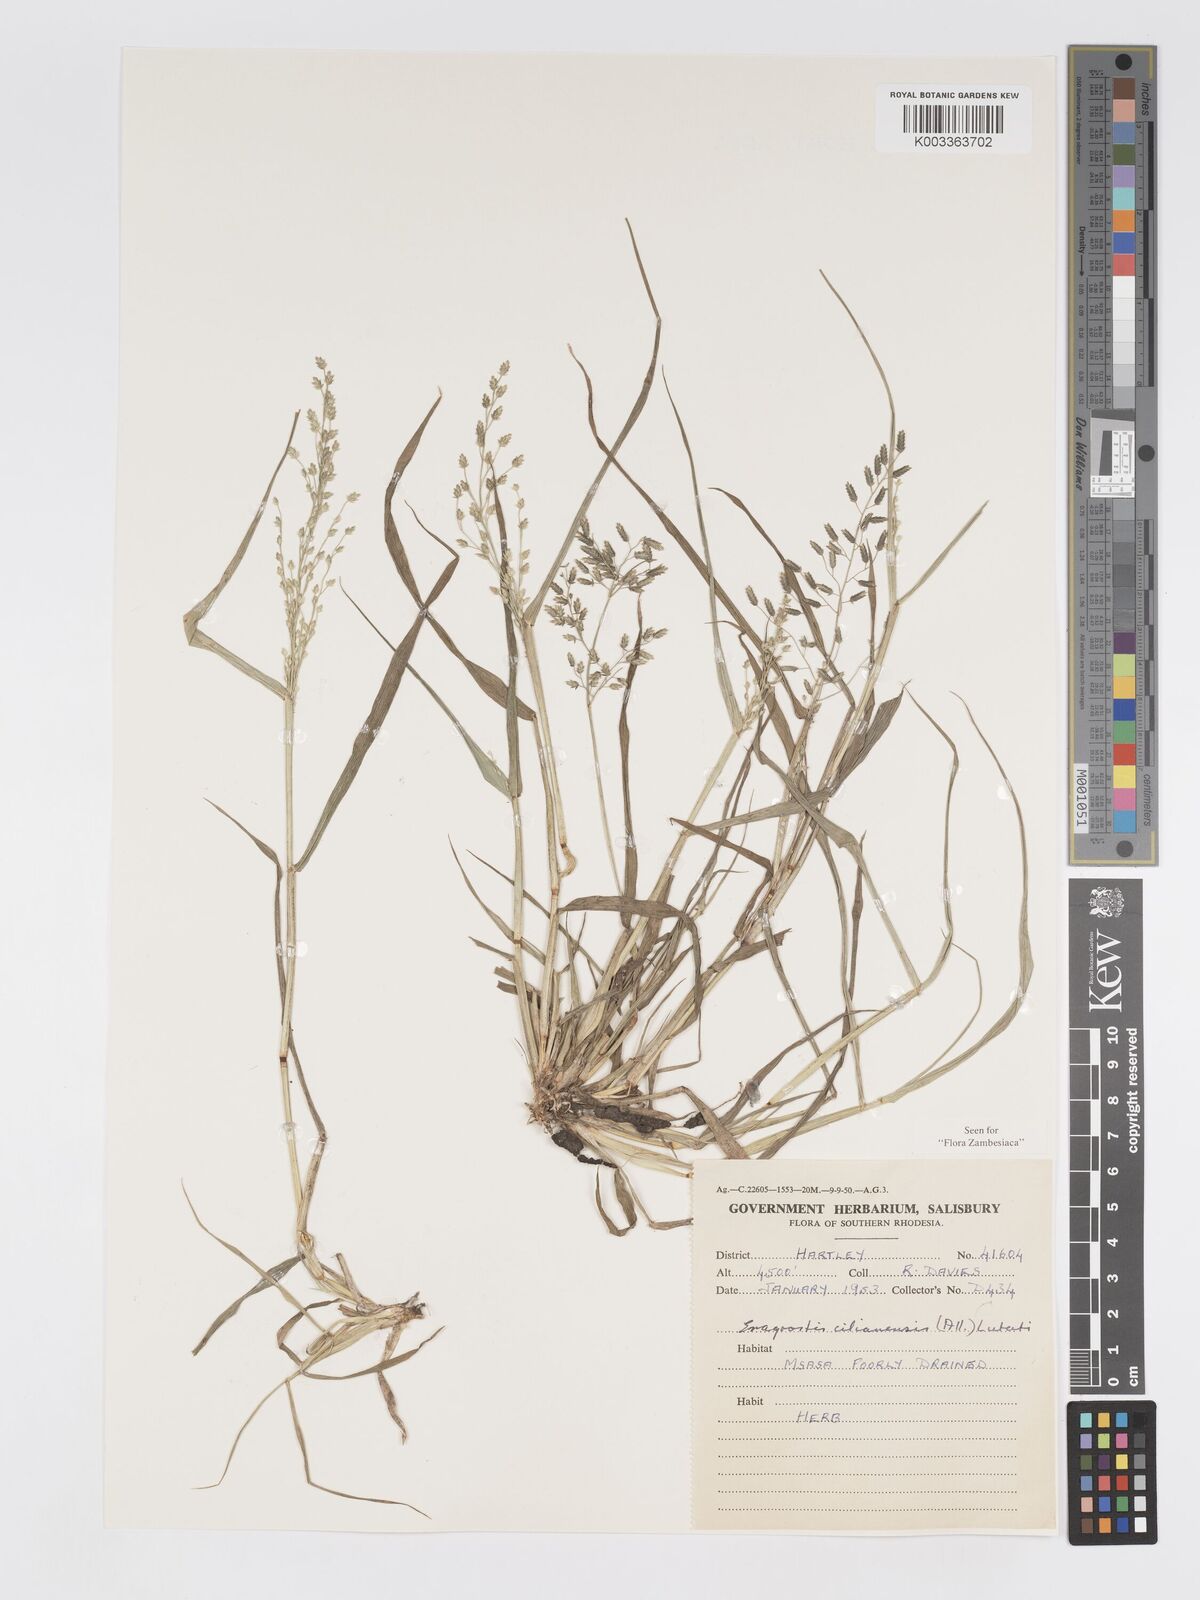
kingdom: Plantae
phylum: Tracheophyta
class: Liliopsida
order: Poales
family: Poaceae
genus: Eragrostis
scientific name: Eragrostis cilianensis
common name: Stinkgrass
